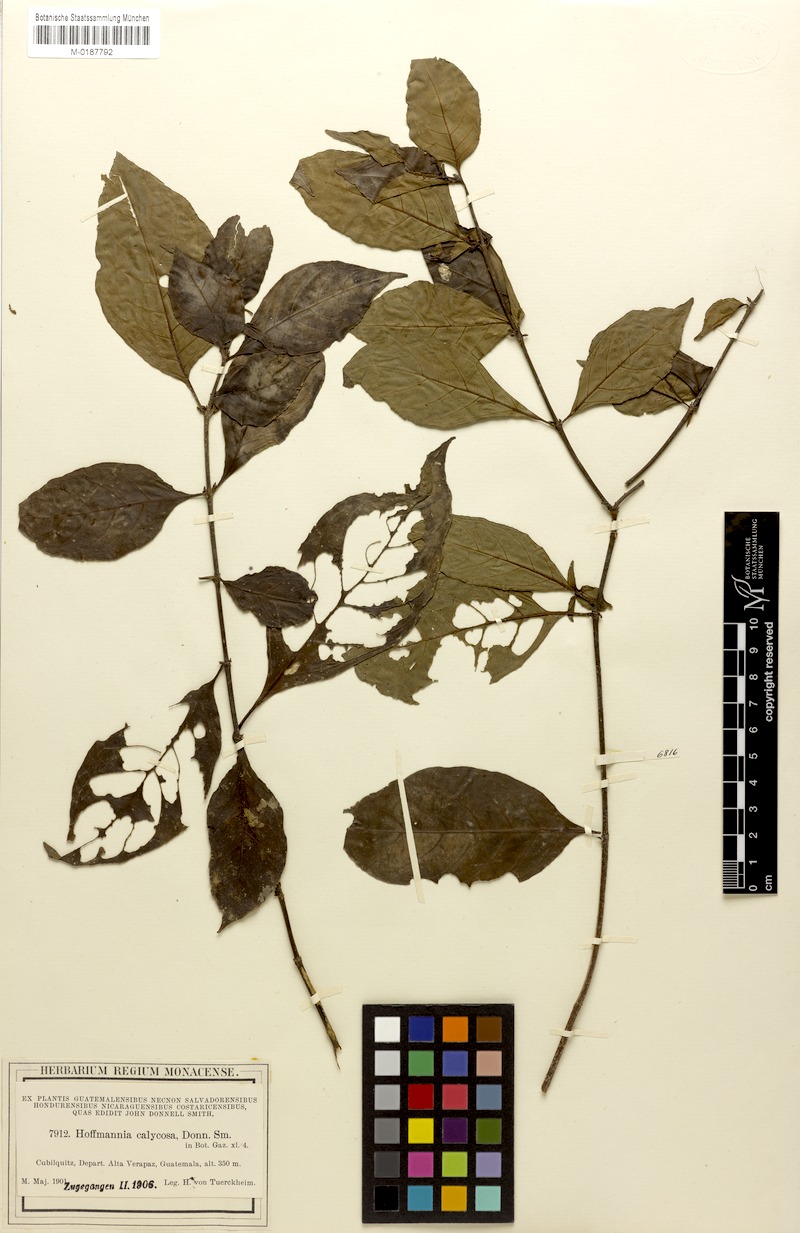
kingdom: Plantae
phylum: Tracheophyta
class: Magnoliopsida
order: Gentianales
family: Rubiaceae
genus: Hoffmannia
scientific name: Hoffmannia psychotriifolia
